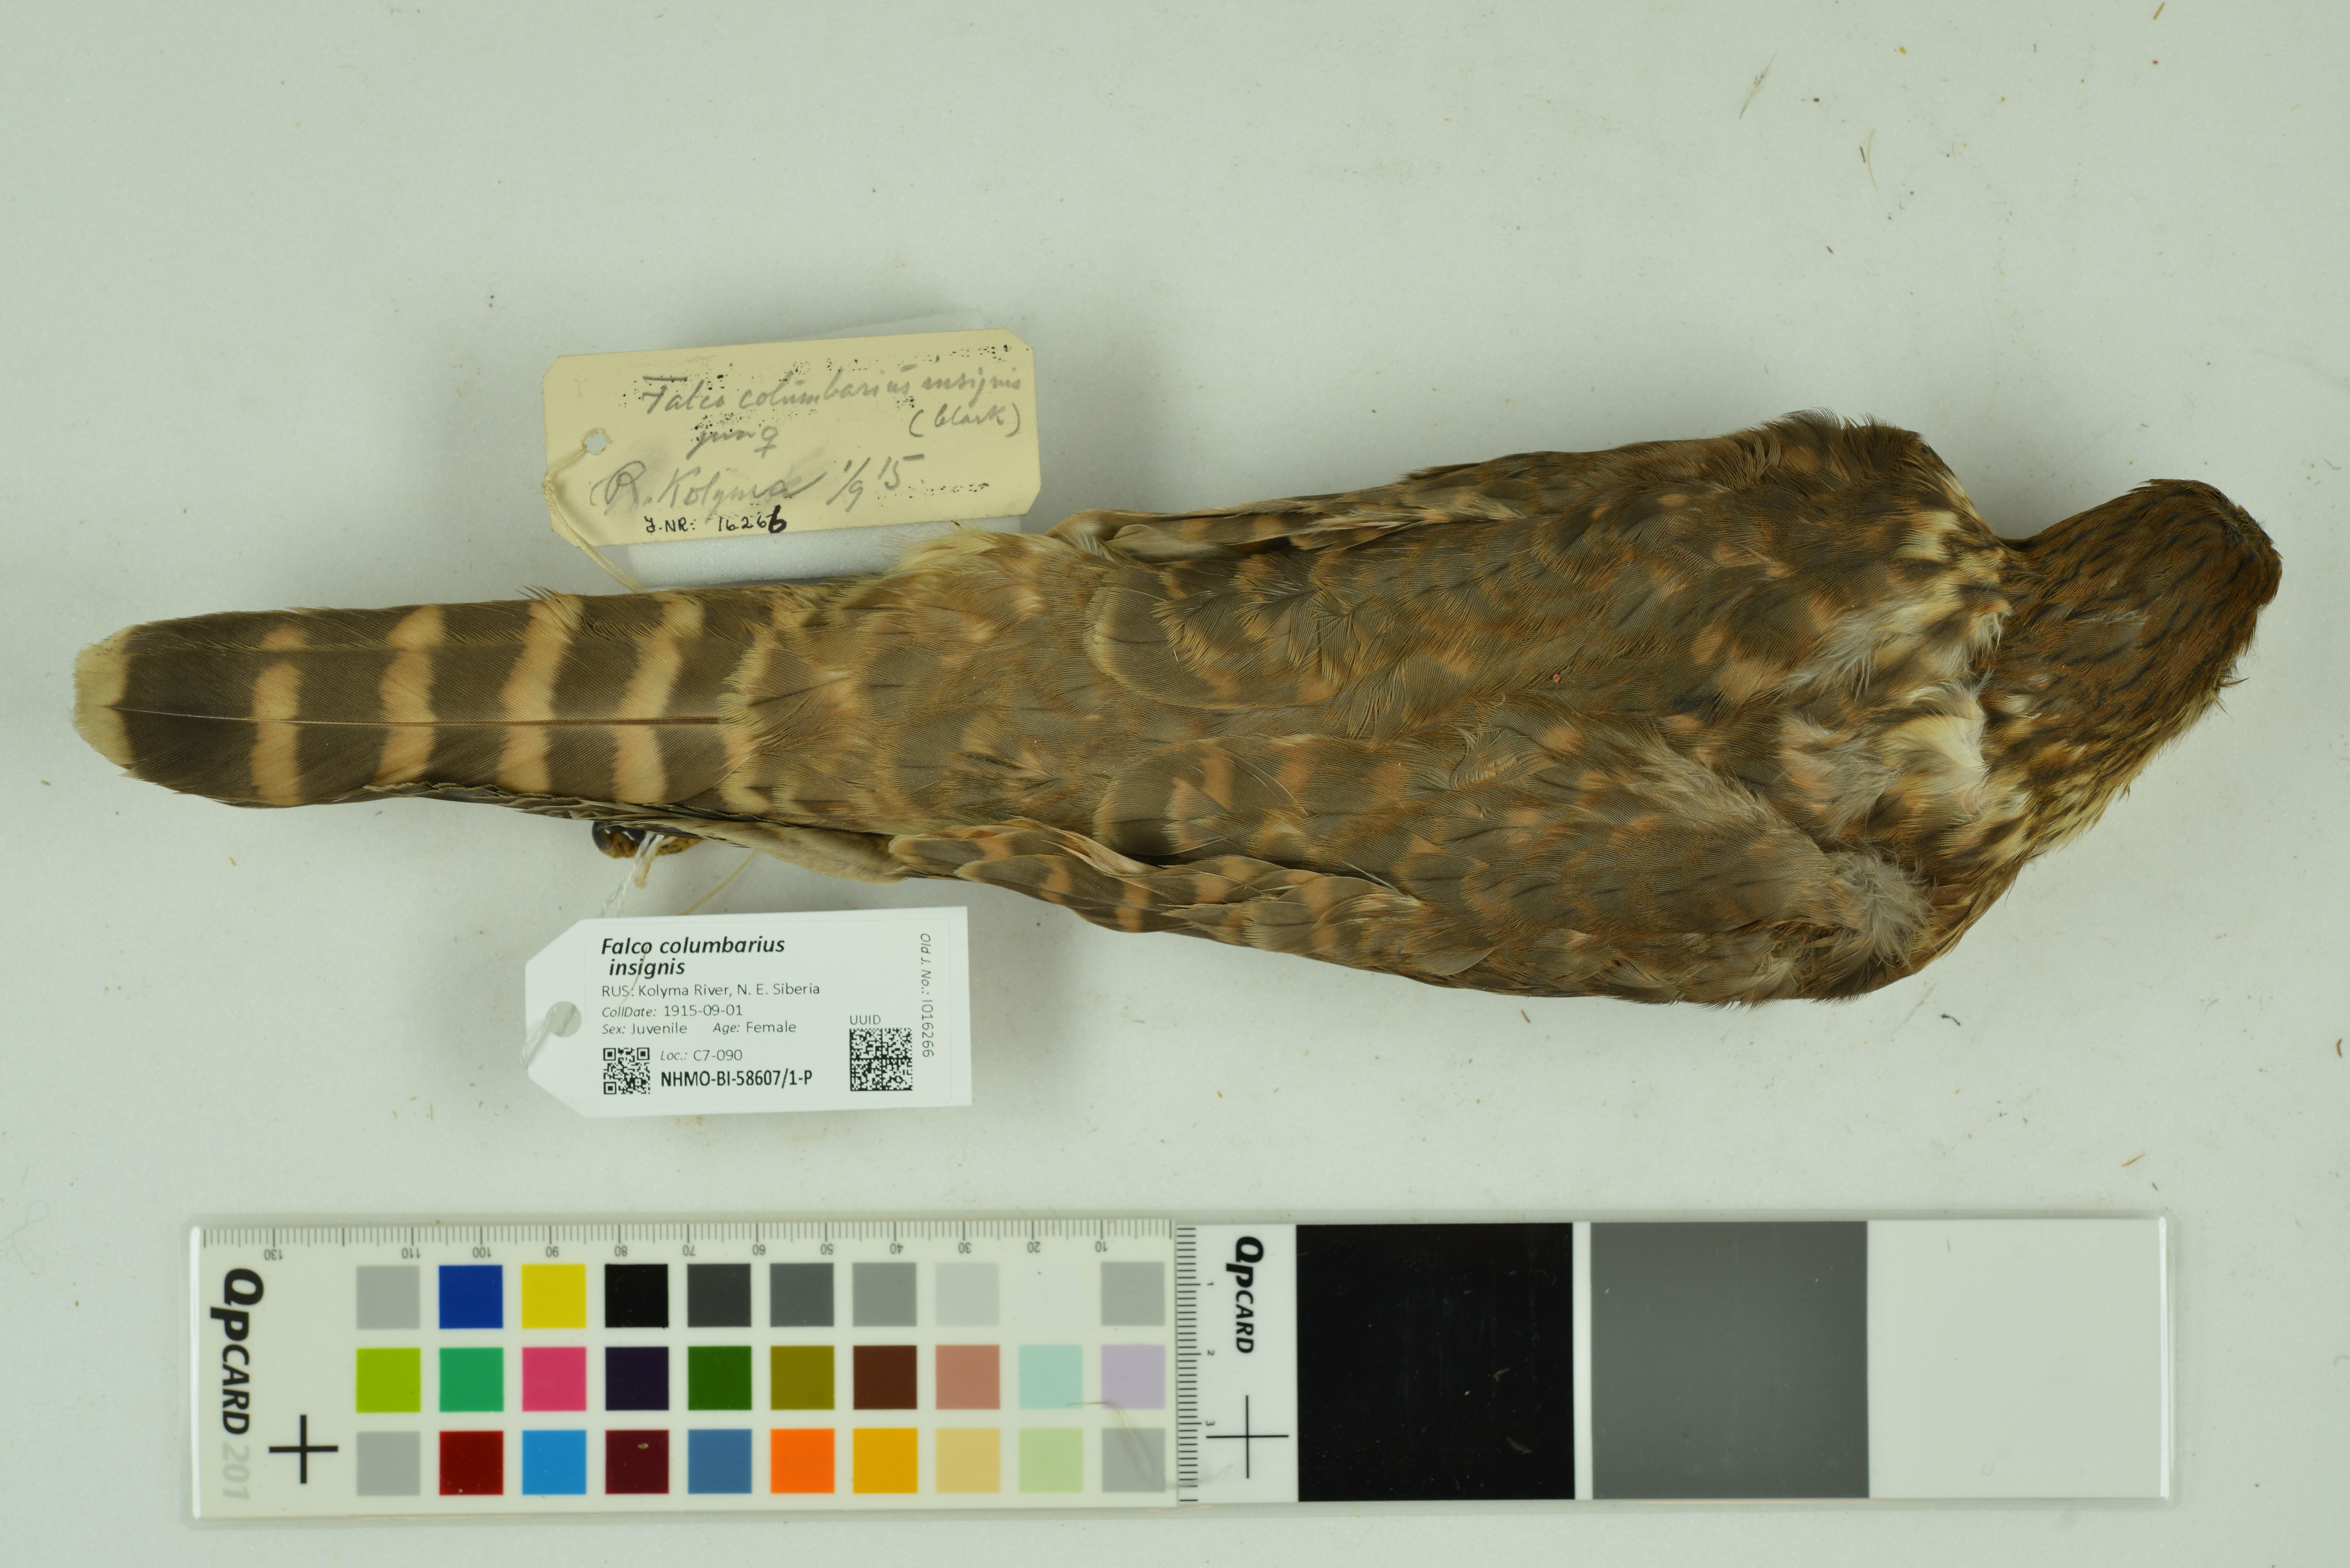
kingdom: Animalia
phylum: Chordata
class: Aves
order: Falconiformes
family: Falconidae
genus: Falco
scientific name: Falco columbarius
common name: Merlin
